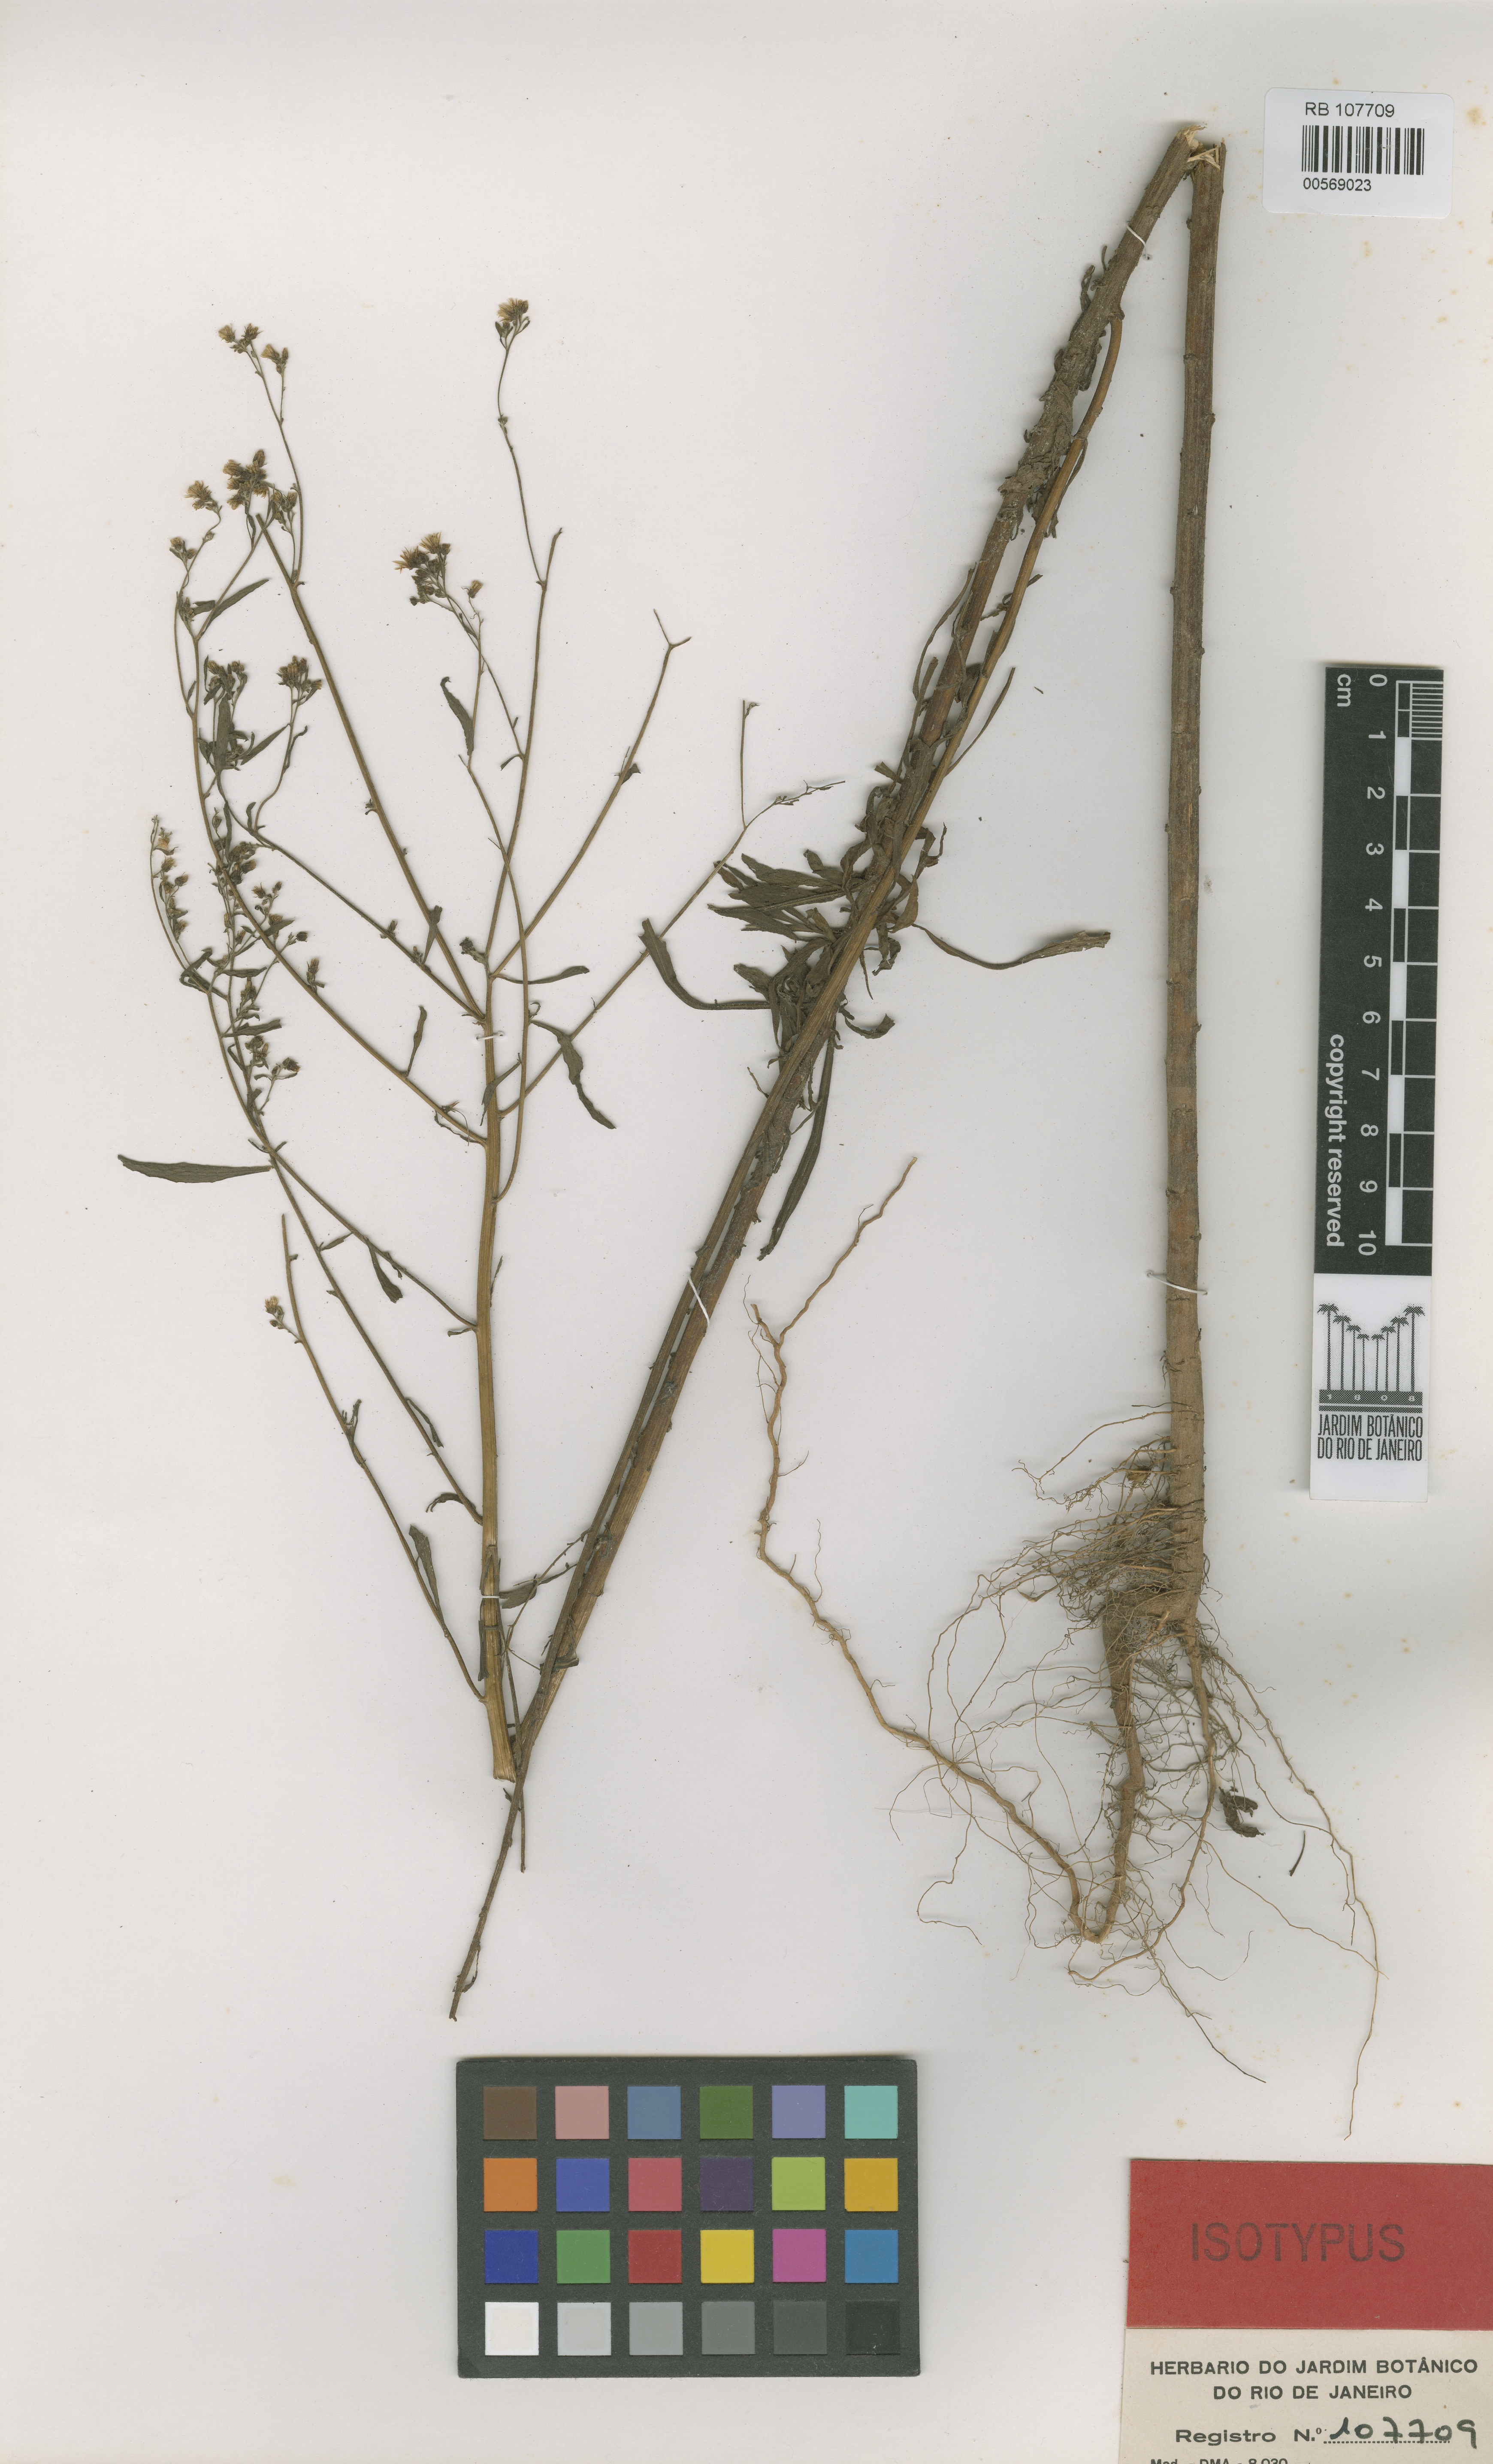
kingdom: Plantae
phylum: Tracheophyta
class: Magnoliopsida
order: Asterales
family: Asteraceae
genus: Erigeron
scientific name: Erigeron sumatrensis
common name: Daisy
